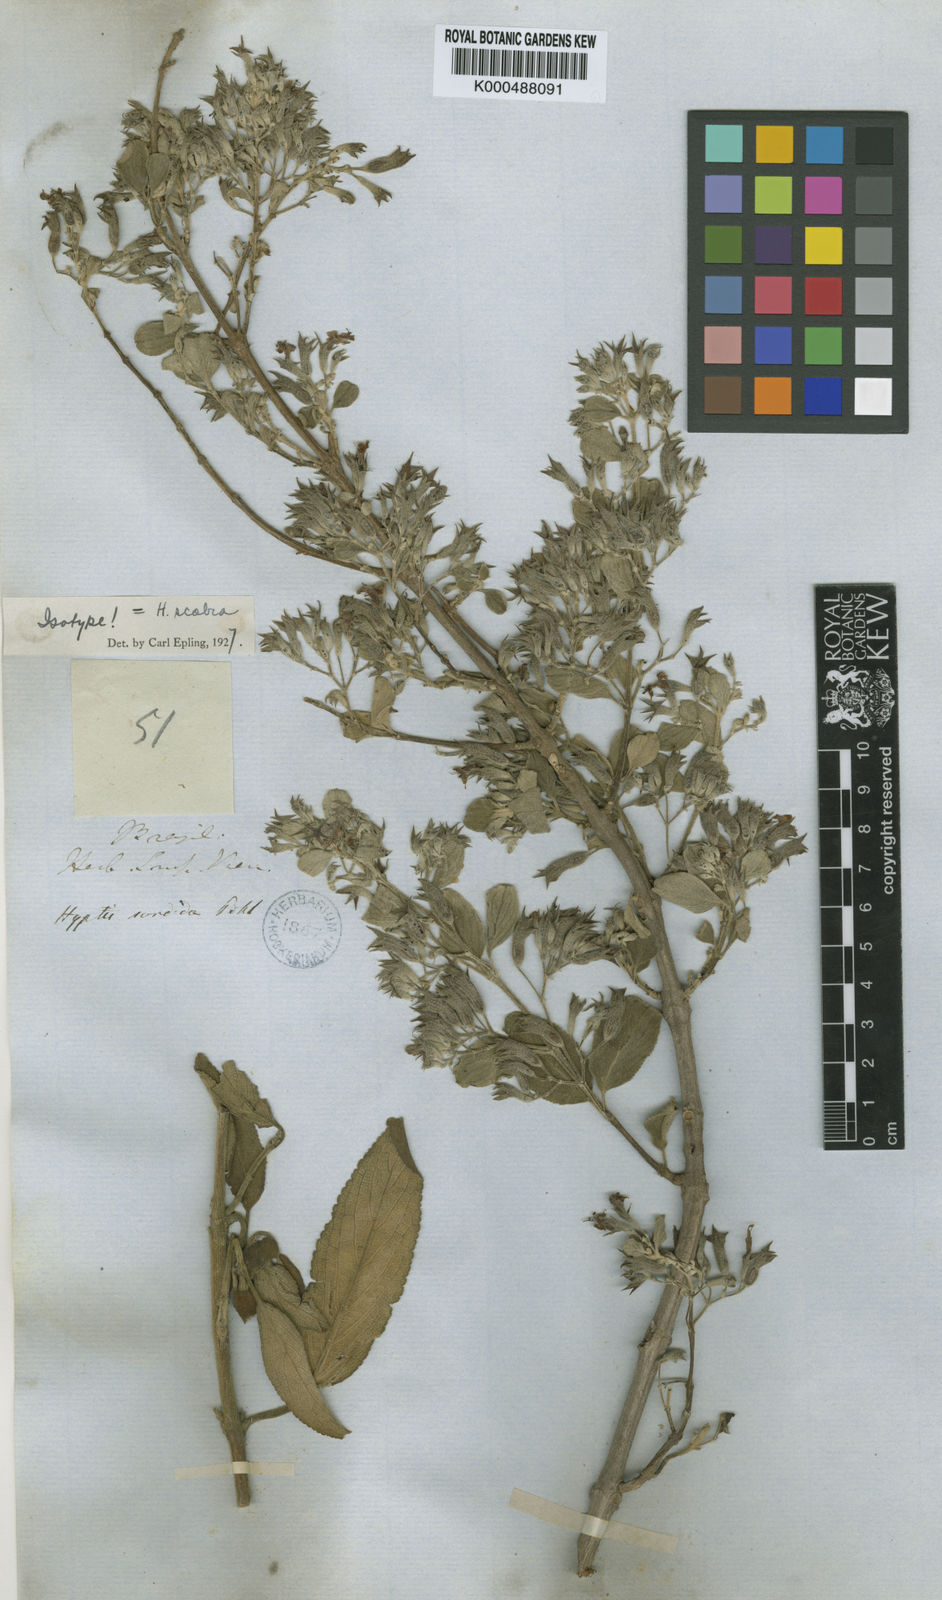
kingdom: Plantae
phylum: Tracheophyta
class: Magnoliopsida
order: Lamiales
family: Lamiaceae
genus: Hyptidendron
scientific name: Hyptidendron canum
